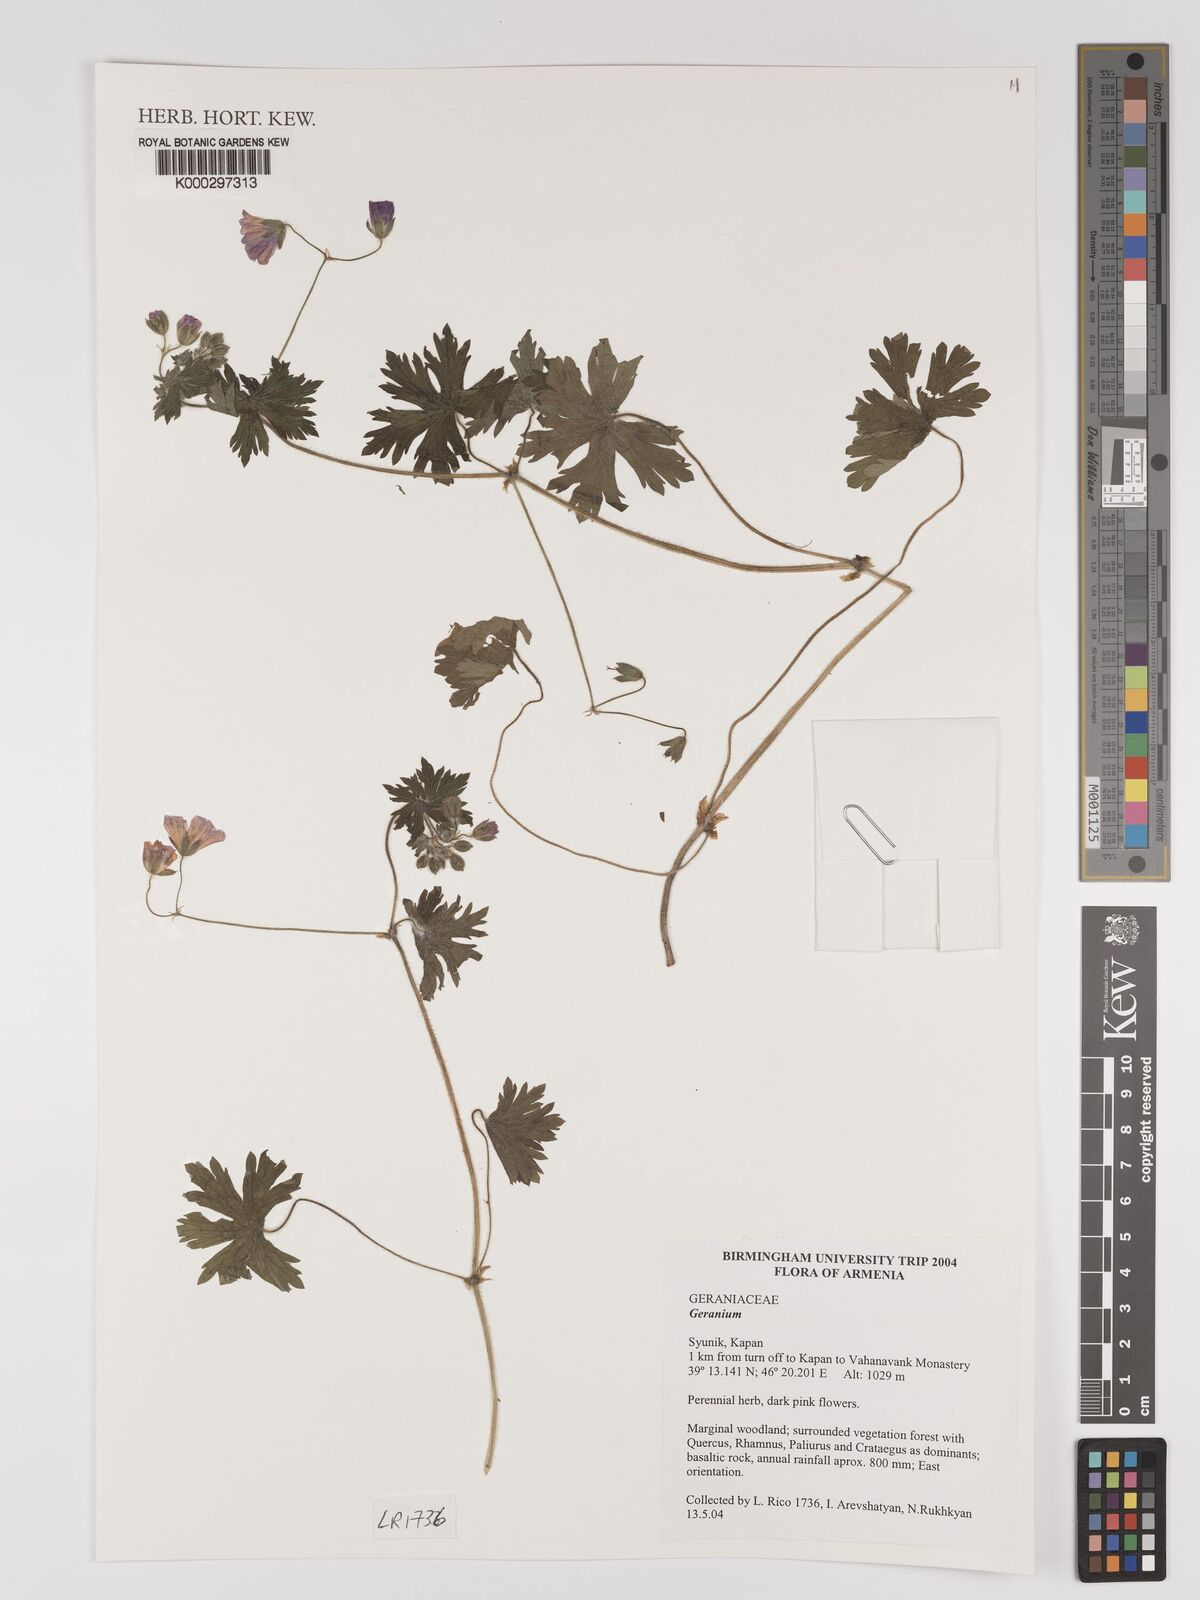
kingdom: Plantae
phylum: Tracheophyta
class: Magnoliopsida
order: Geraniales
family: Geraniaceae
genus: Geranium
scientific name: Geranium
